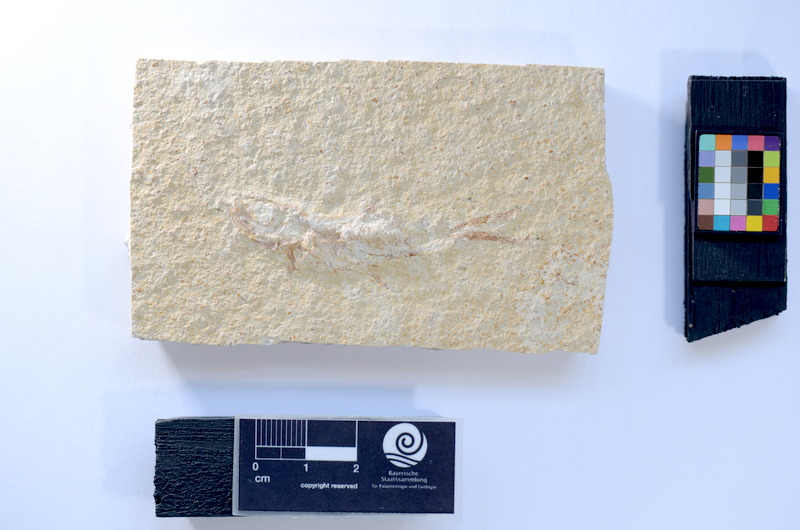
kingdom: Animalia
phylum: Chordata
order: Salmoniformes
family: Orthogonikleithridae
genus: Leptolepides
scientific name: Leptolepides sprattiformis
